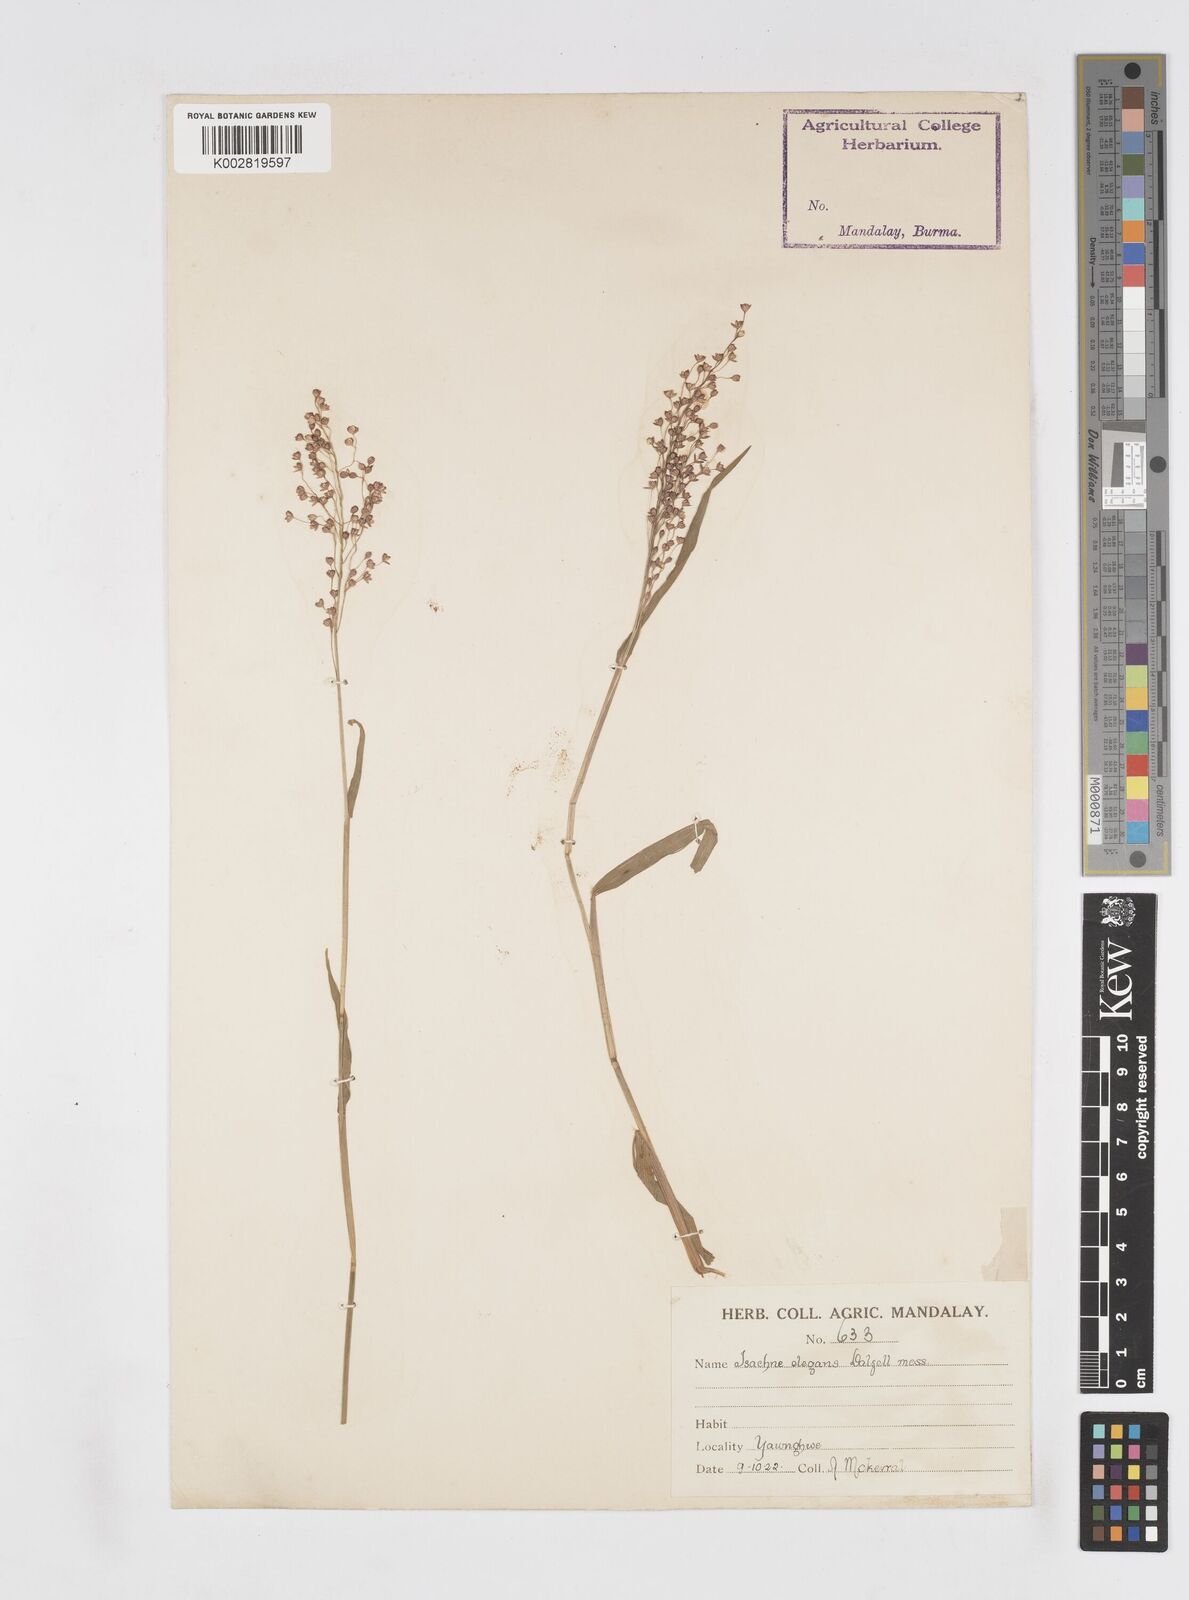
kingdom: Plantae
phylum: Tracheophyta
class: Liliopsida
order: Poales
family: Poaceae
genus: Isachne
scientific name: Isachne elegans
